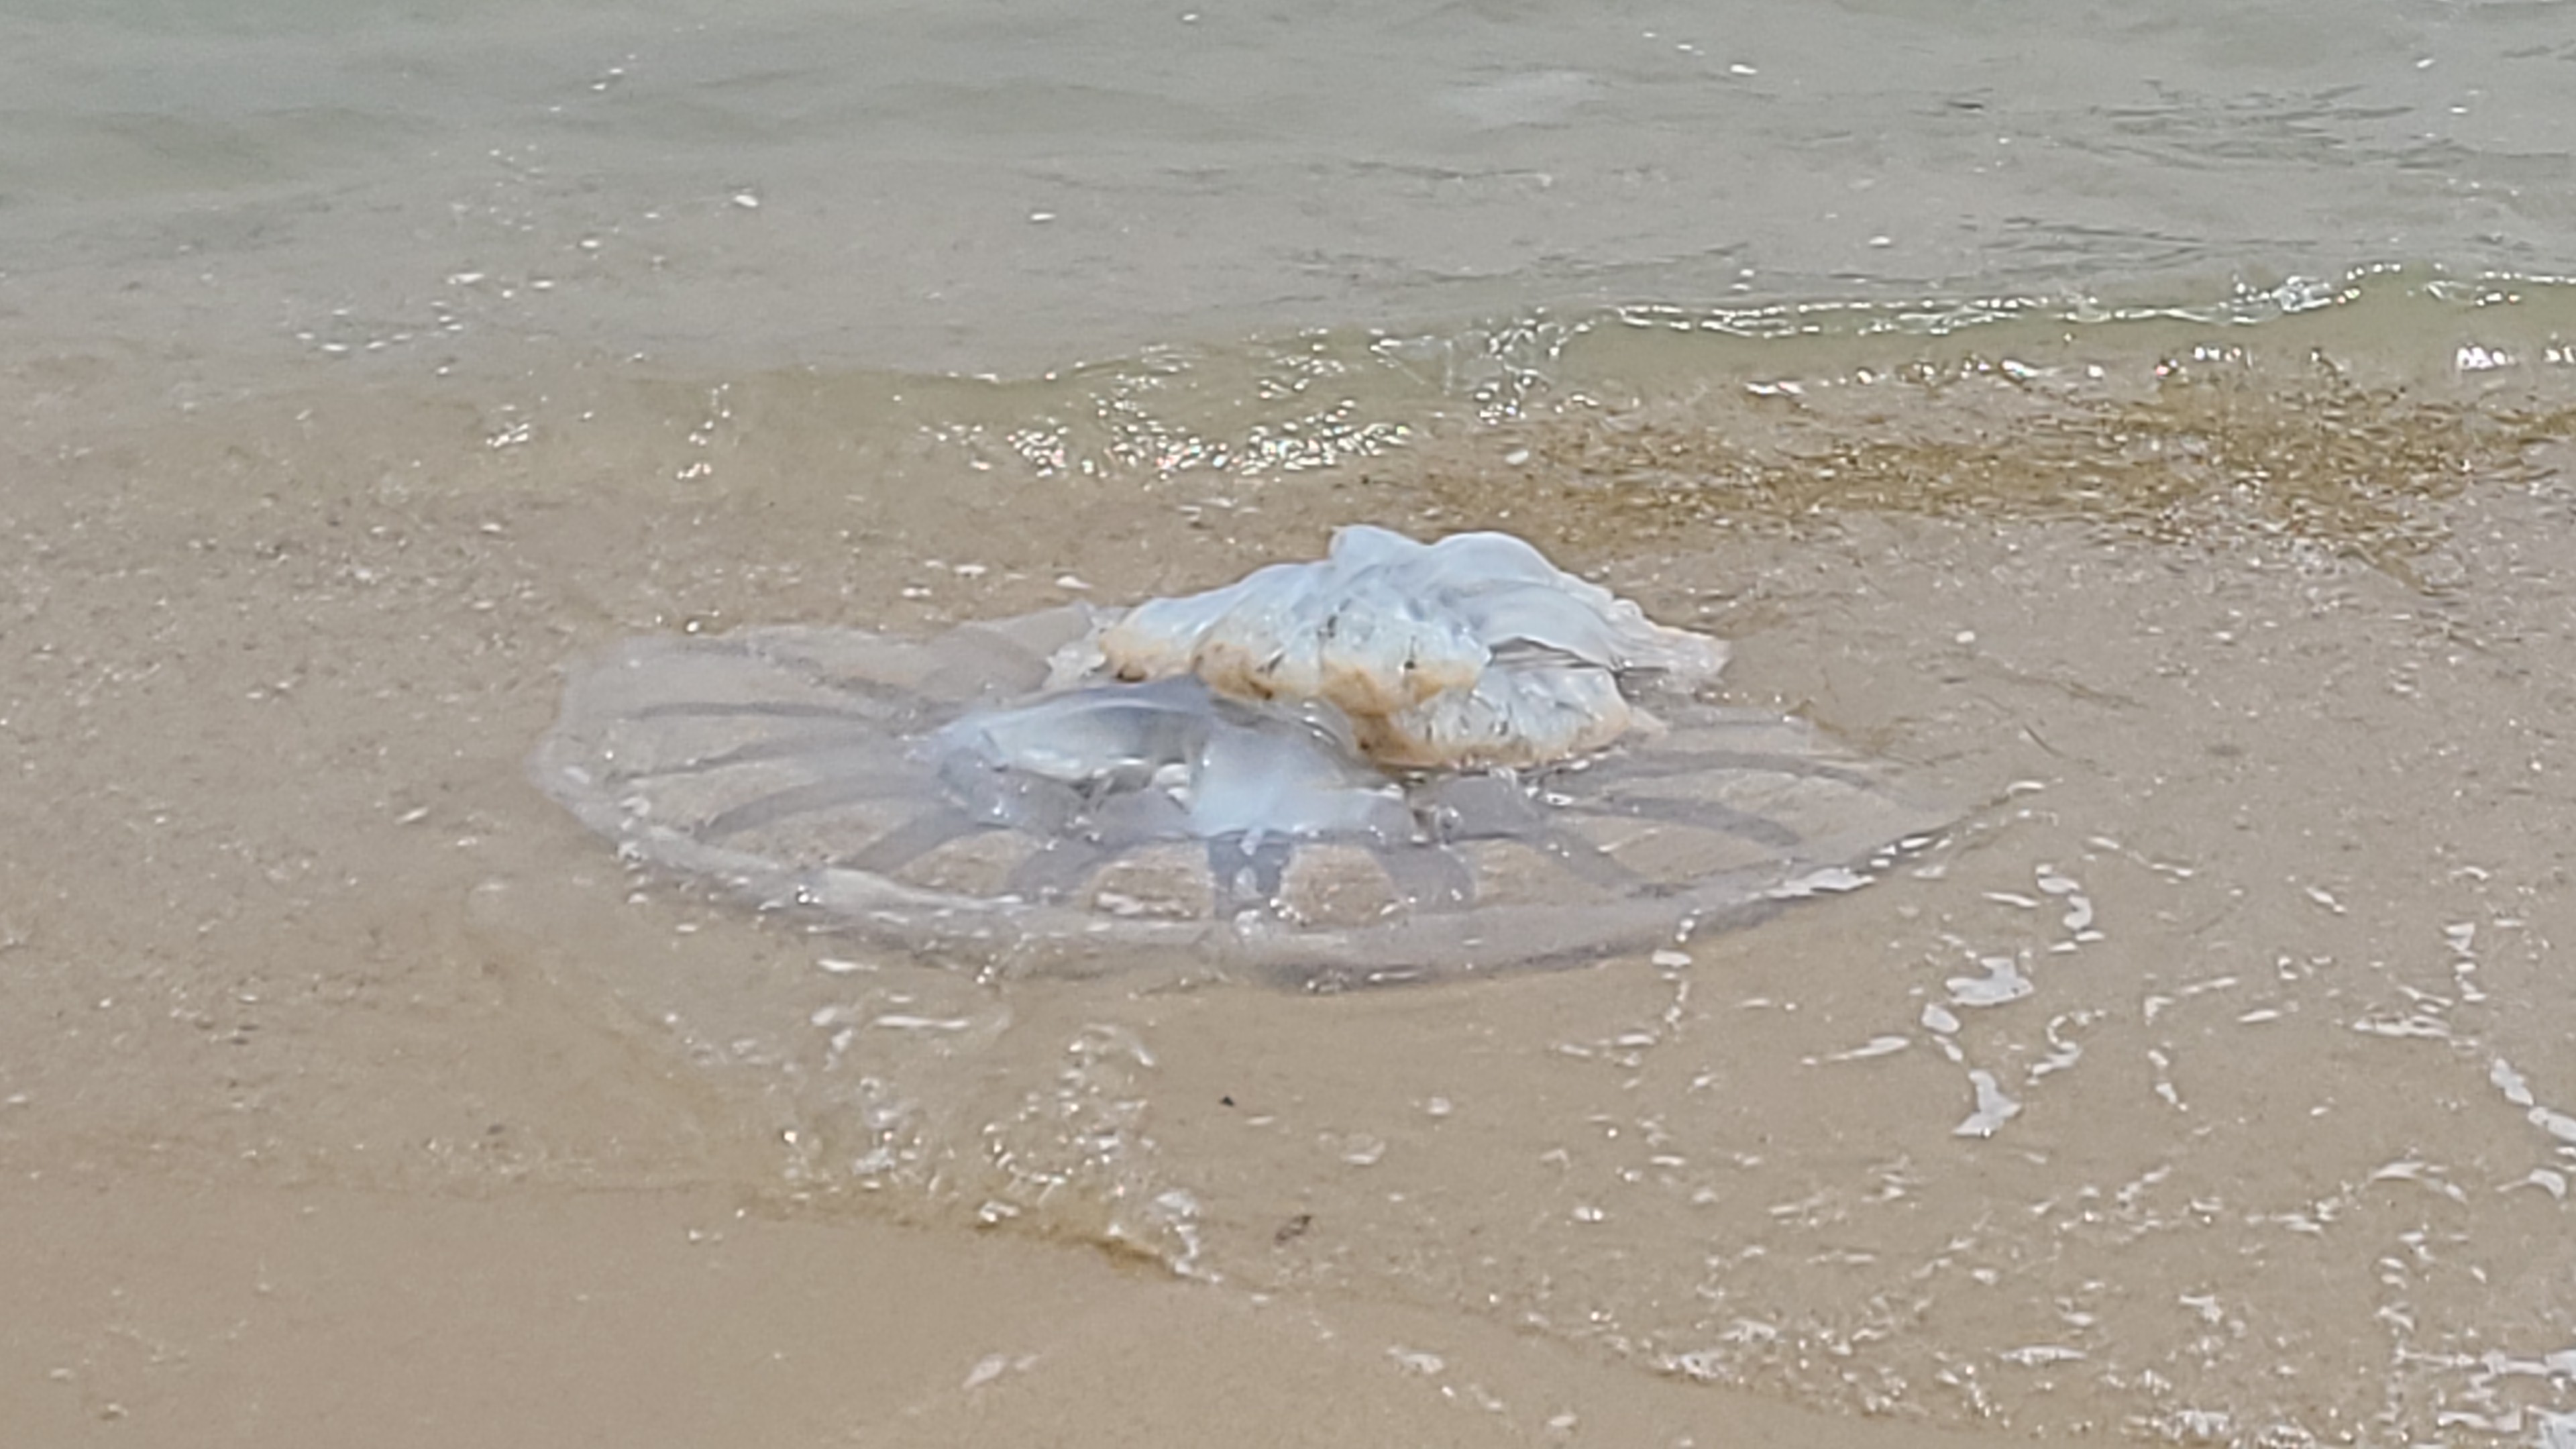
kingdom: Animalia
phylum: Cnidaria
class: Scyphozoa
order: Rhizostomeae
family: Rhizostomatidae
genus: Rhopilema
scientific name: Rhopilema hispidum
